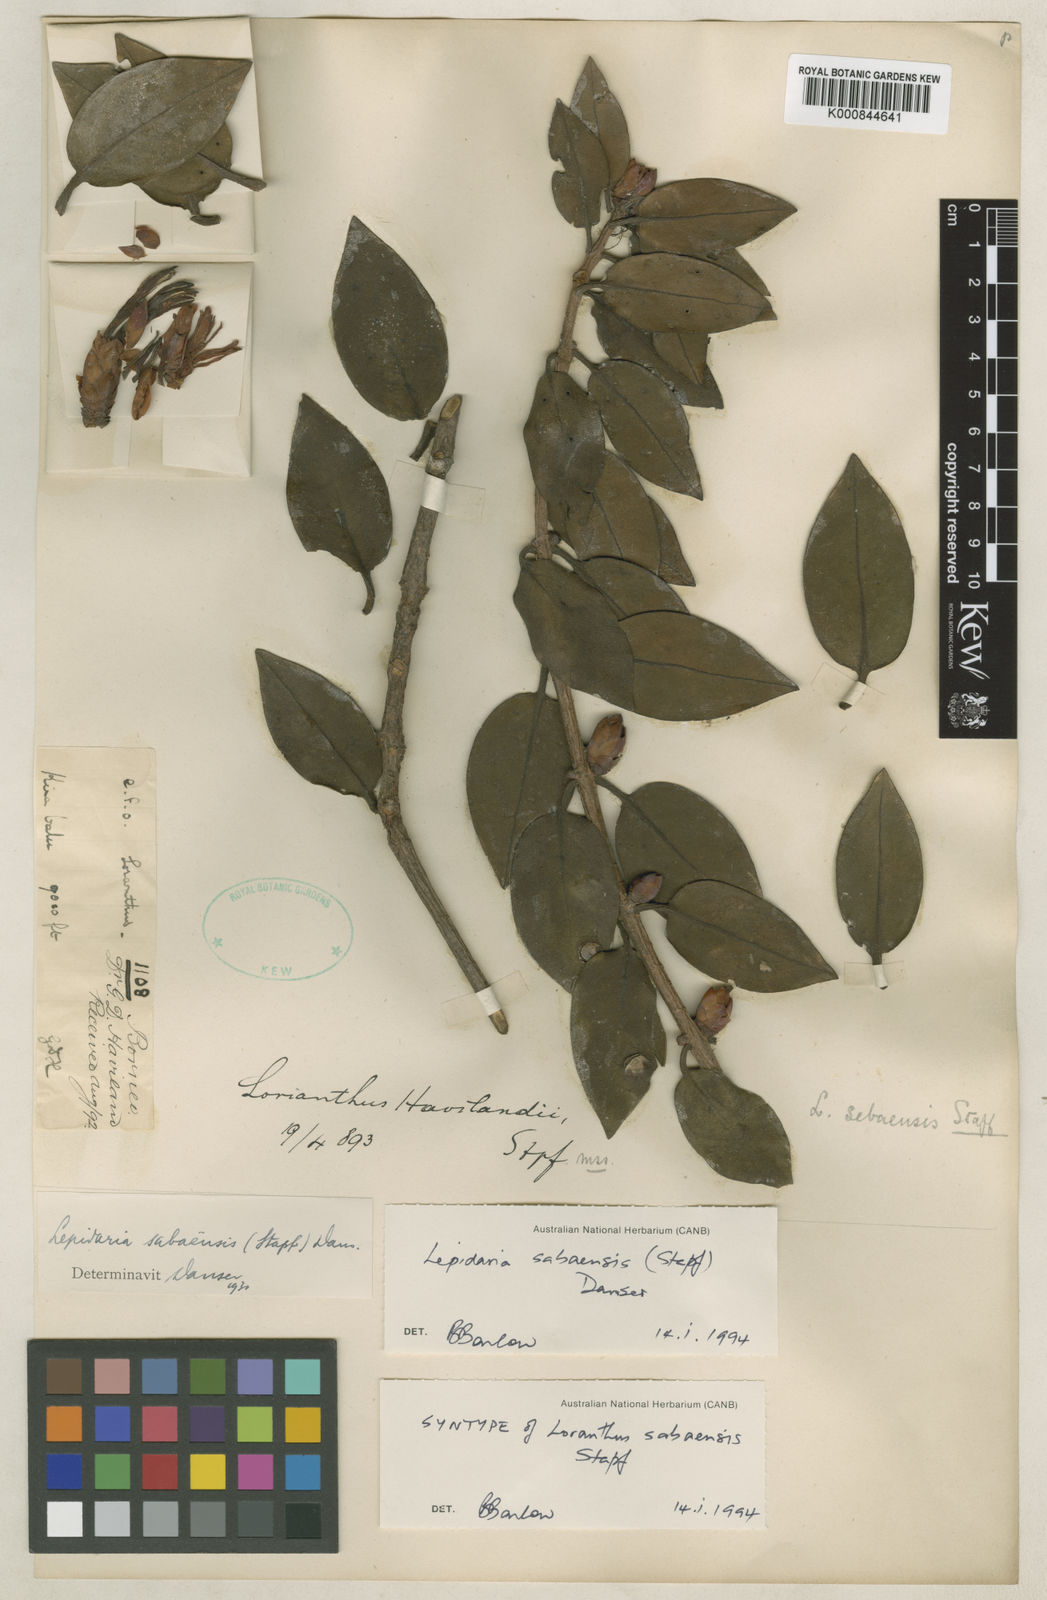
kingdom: Plantae
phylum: Tracheophyta
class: Magnoliopsida
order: Santalales
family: Loranthaceae
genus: Lepidaria
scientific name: Lepidaria sabaensis
